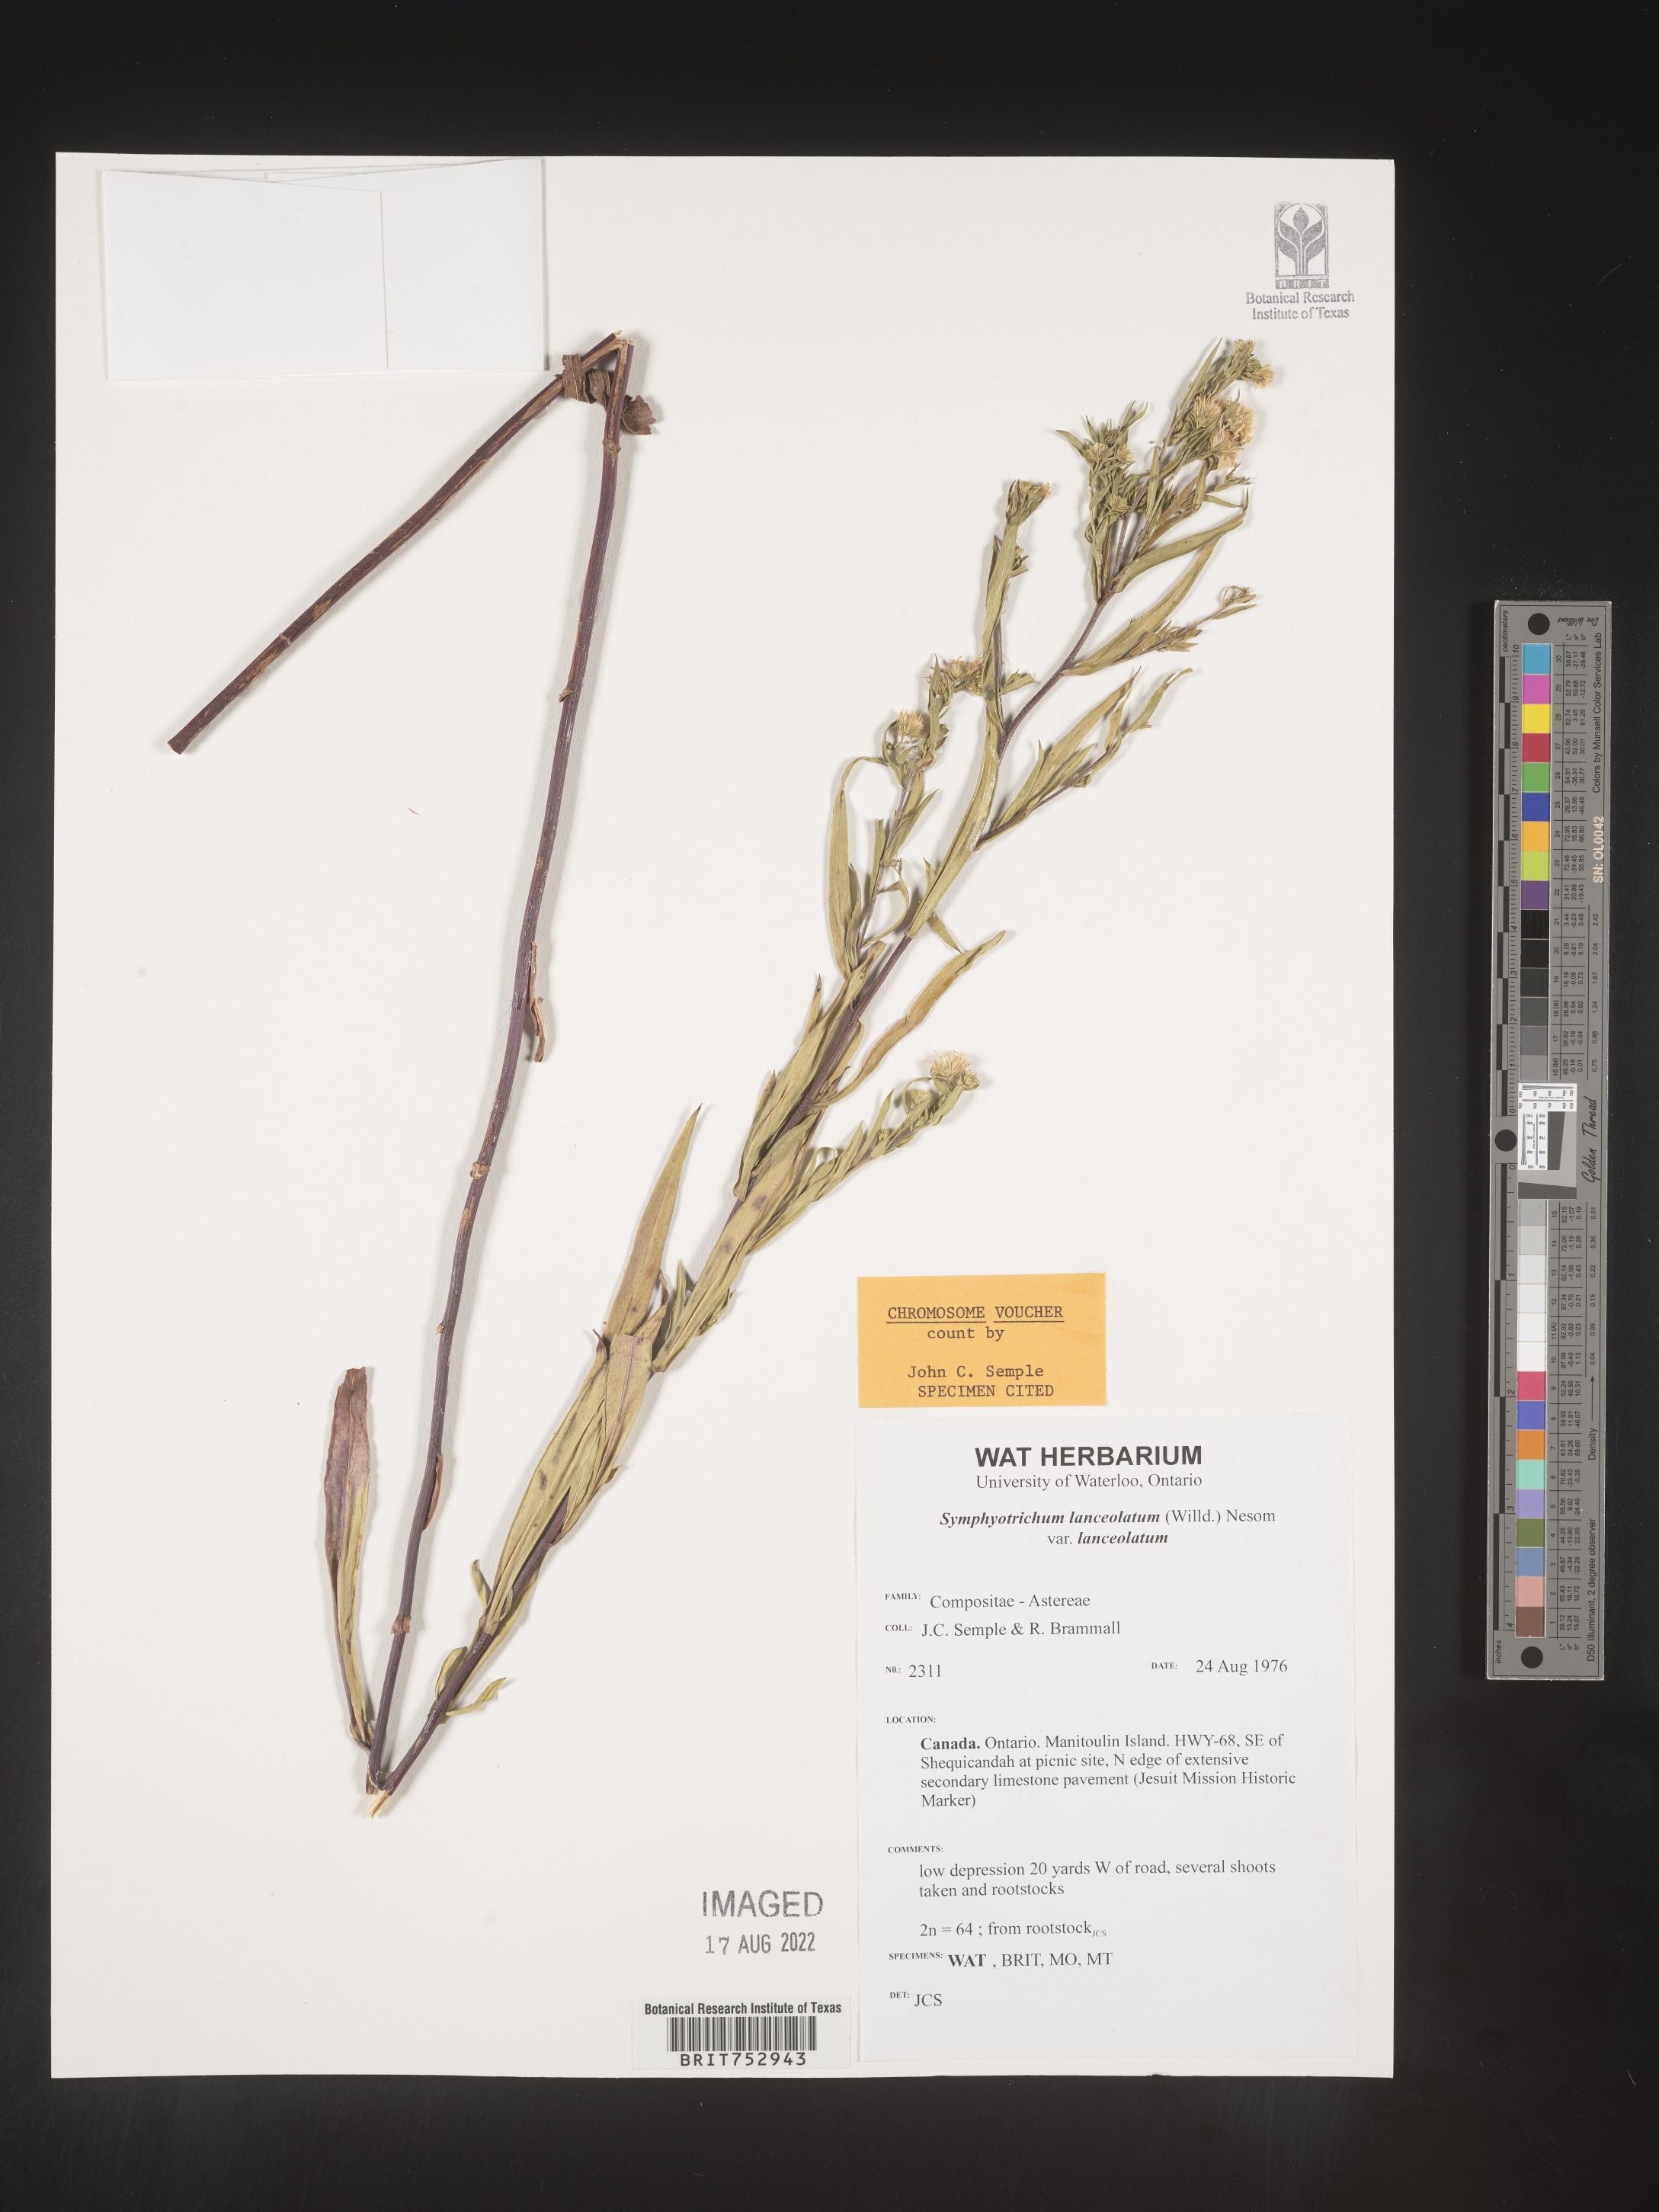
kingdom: Plantae
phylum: Tracheophyta
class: Magnoliopsida
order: Asterales
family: Asteraceae
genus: Symphyotrichum
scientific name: Symphyotrichum lanceolatum
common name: Panicled aster
